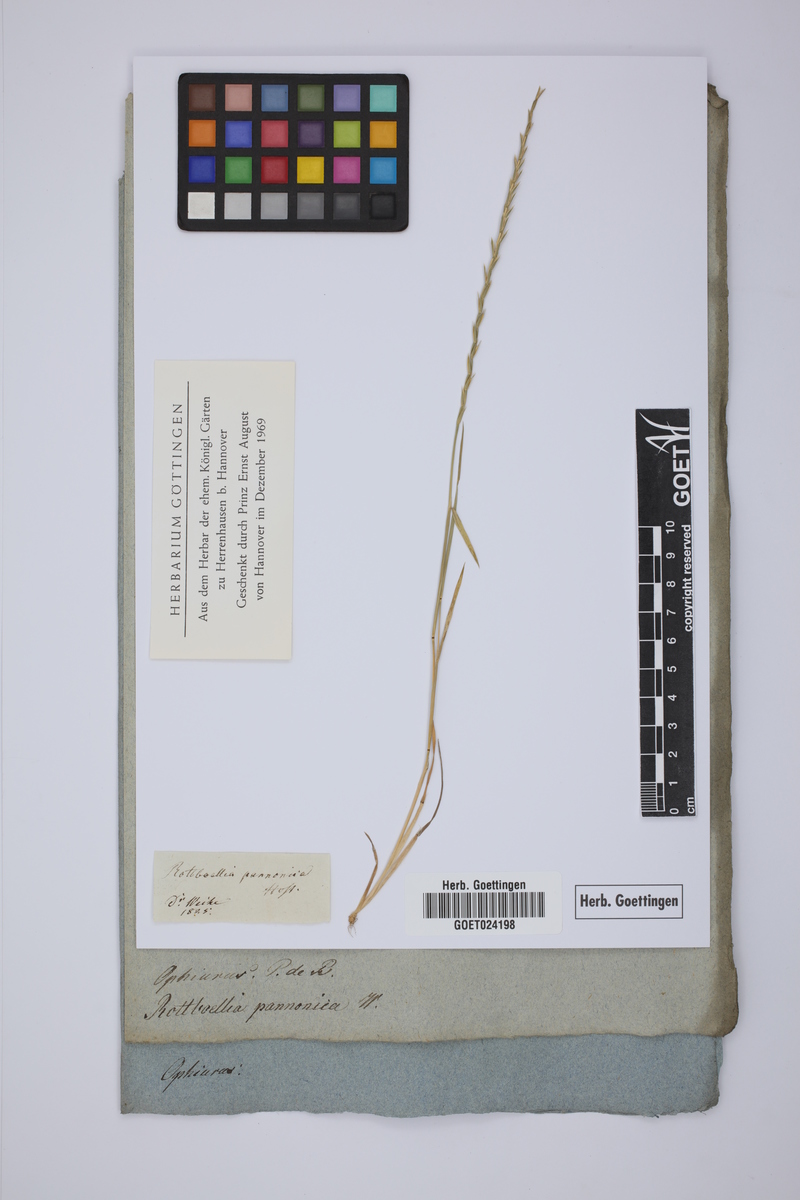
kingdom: Plantae
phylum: Tracheophyta
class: Liliopsida
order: Poales
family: Poaceae
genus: Pholiurus
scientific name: Pholiurus pannonicus
